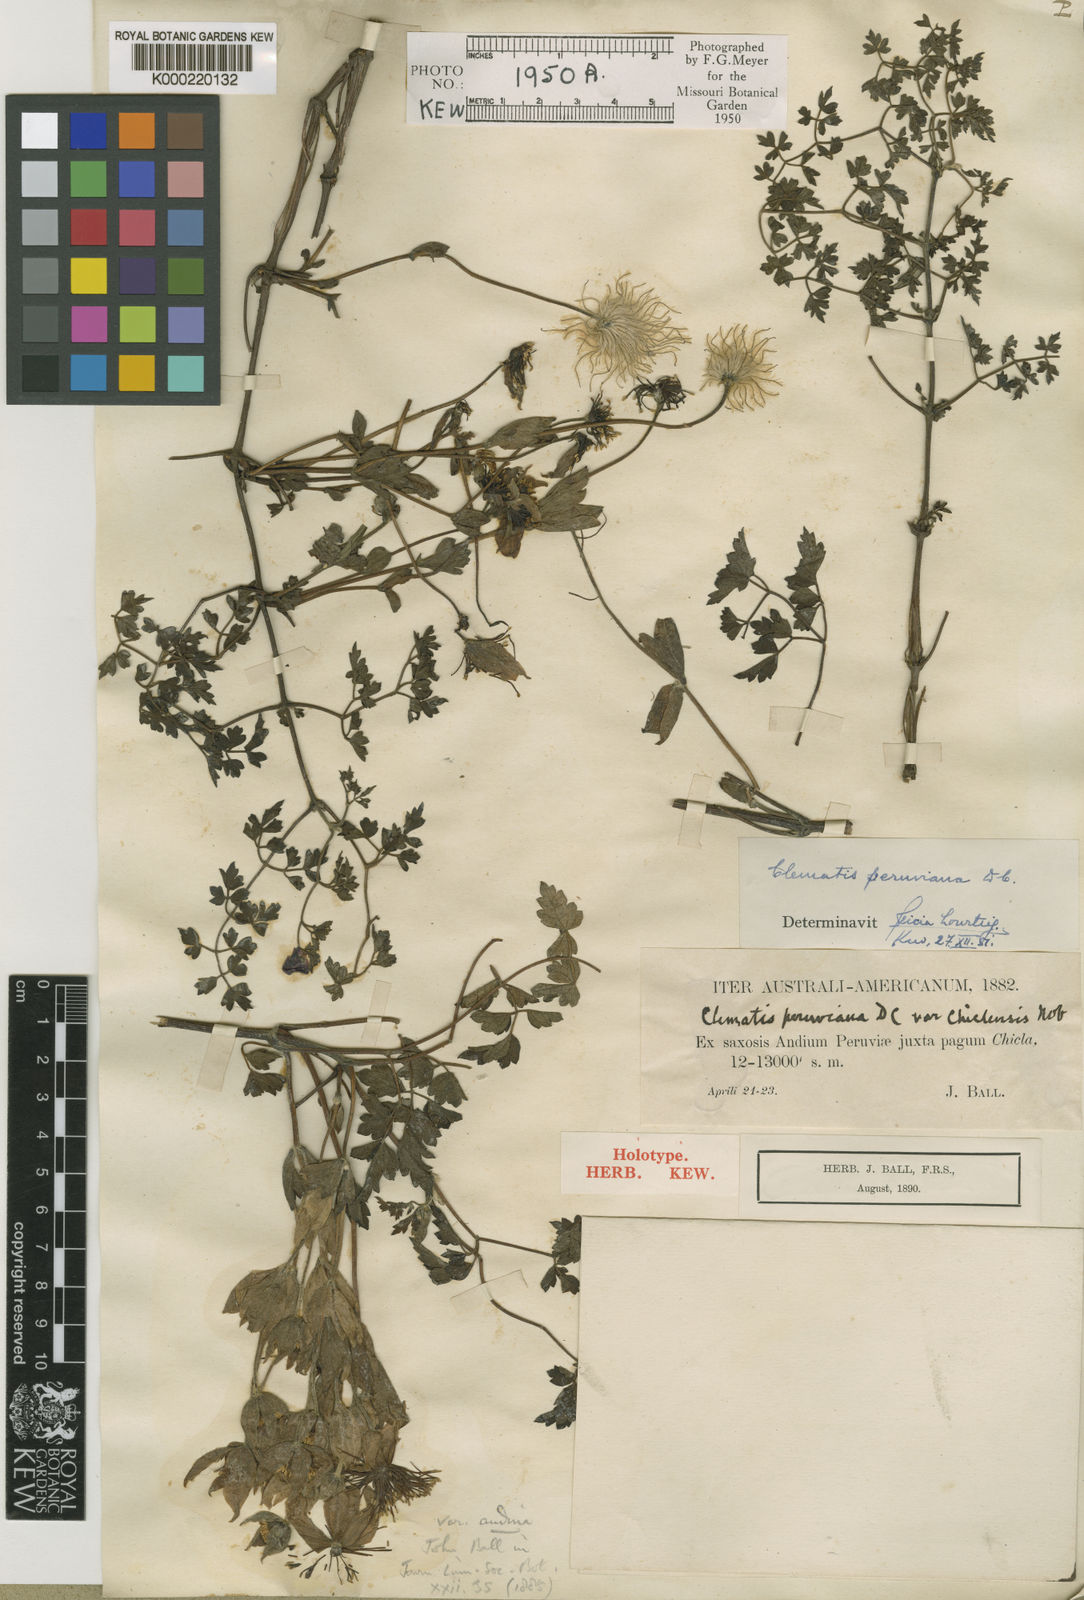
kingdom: Plantae
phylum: Tracheophyta
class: Magnoliopsida
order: Ranunculales
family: Ranunculaceae
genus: Clematis
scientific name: Clematis peruviana
